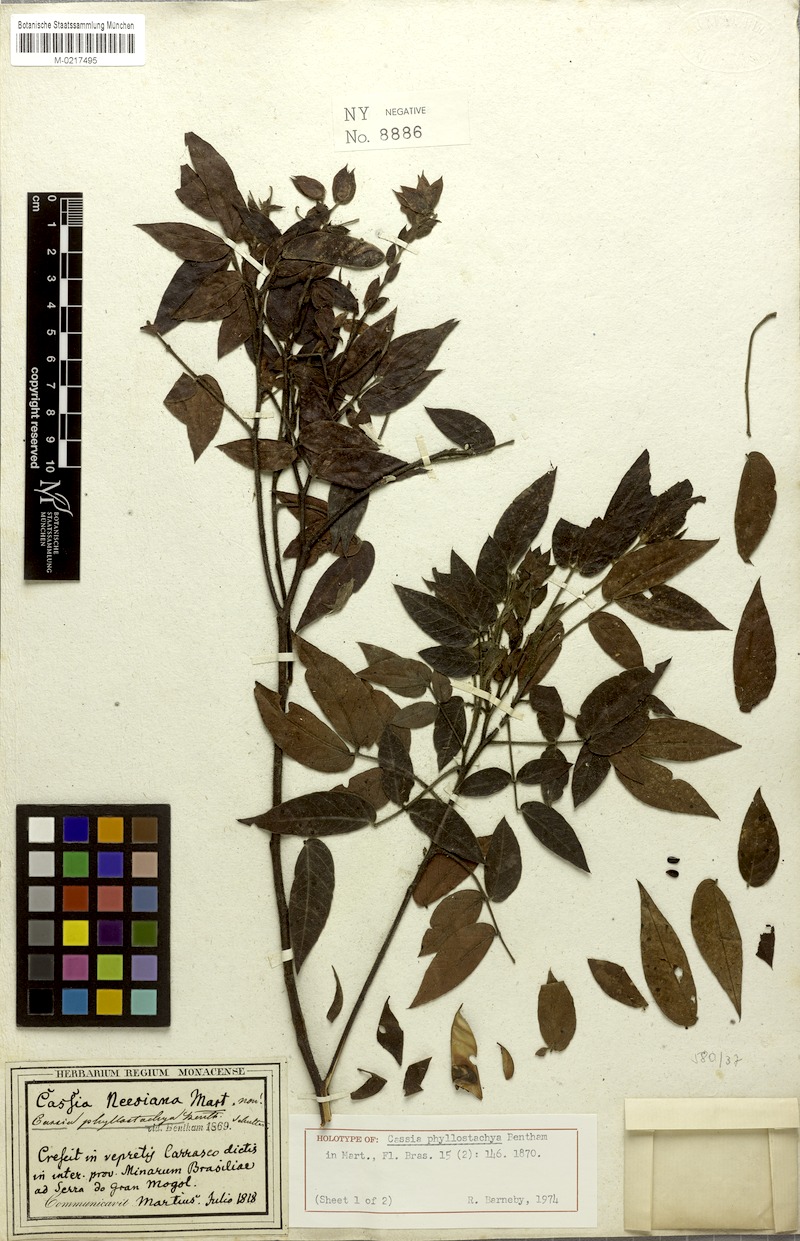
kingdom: Plantae
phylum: Tracheophyta
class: Magnoliopsida
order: Fabales
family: Fabaceae
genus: Chamaecrista
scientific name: Chamaecrista phyllostachya
